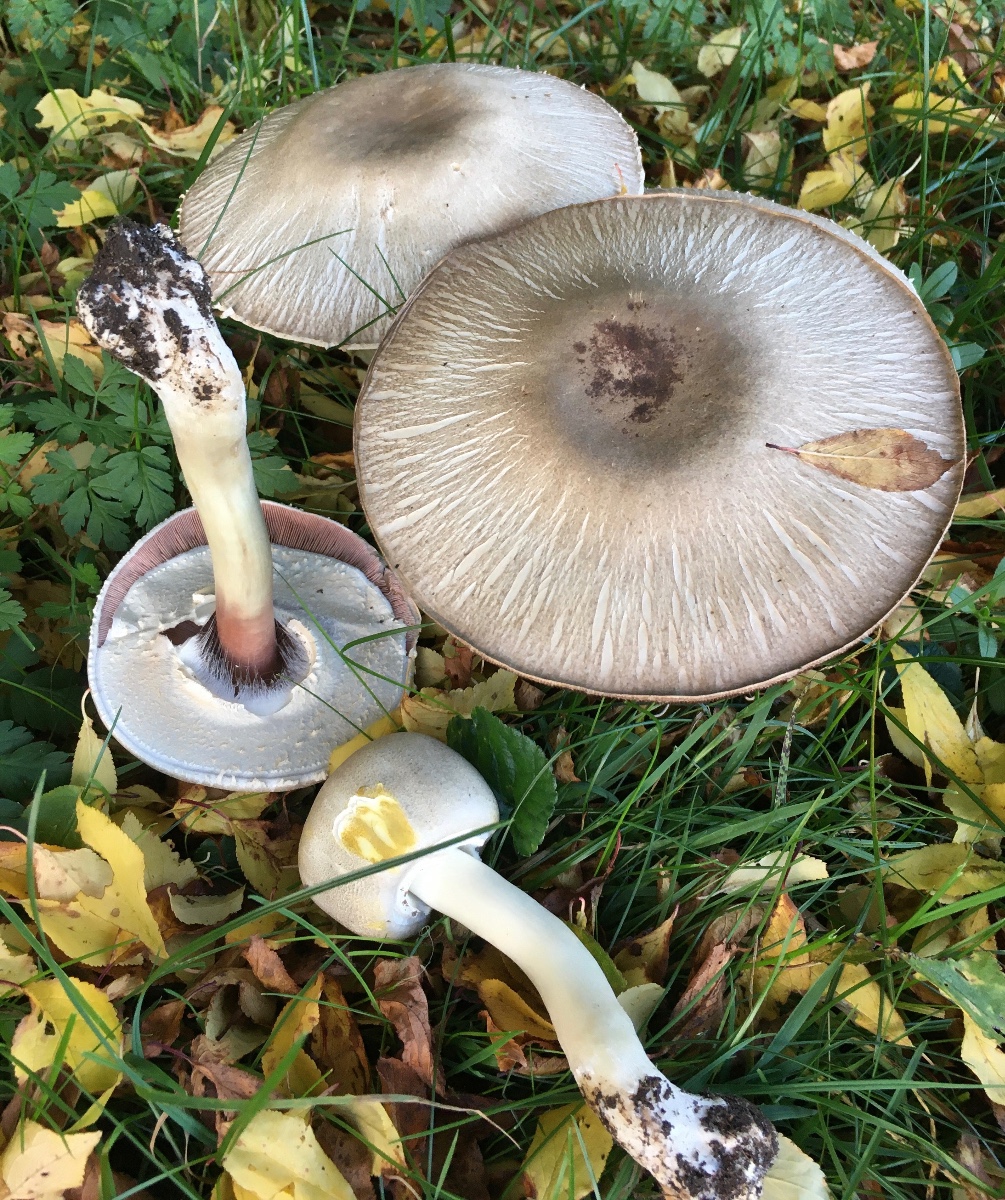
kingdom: Fungi
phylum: Basidiomycota
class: Agaricomycetes
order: Agaricales
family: Agaricaceae
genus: Agaricus
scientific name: Agaricus xanthodermus
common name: karbol-champignon
